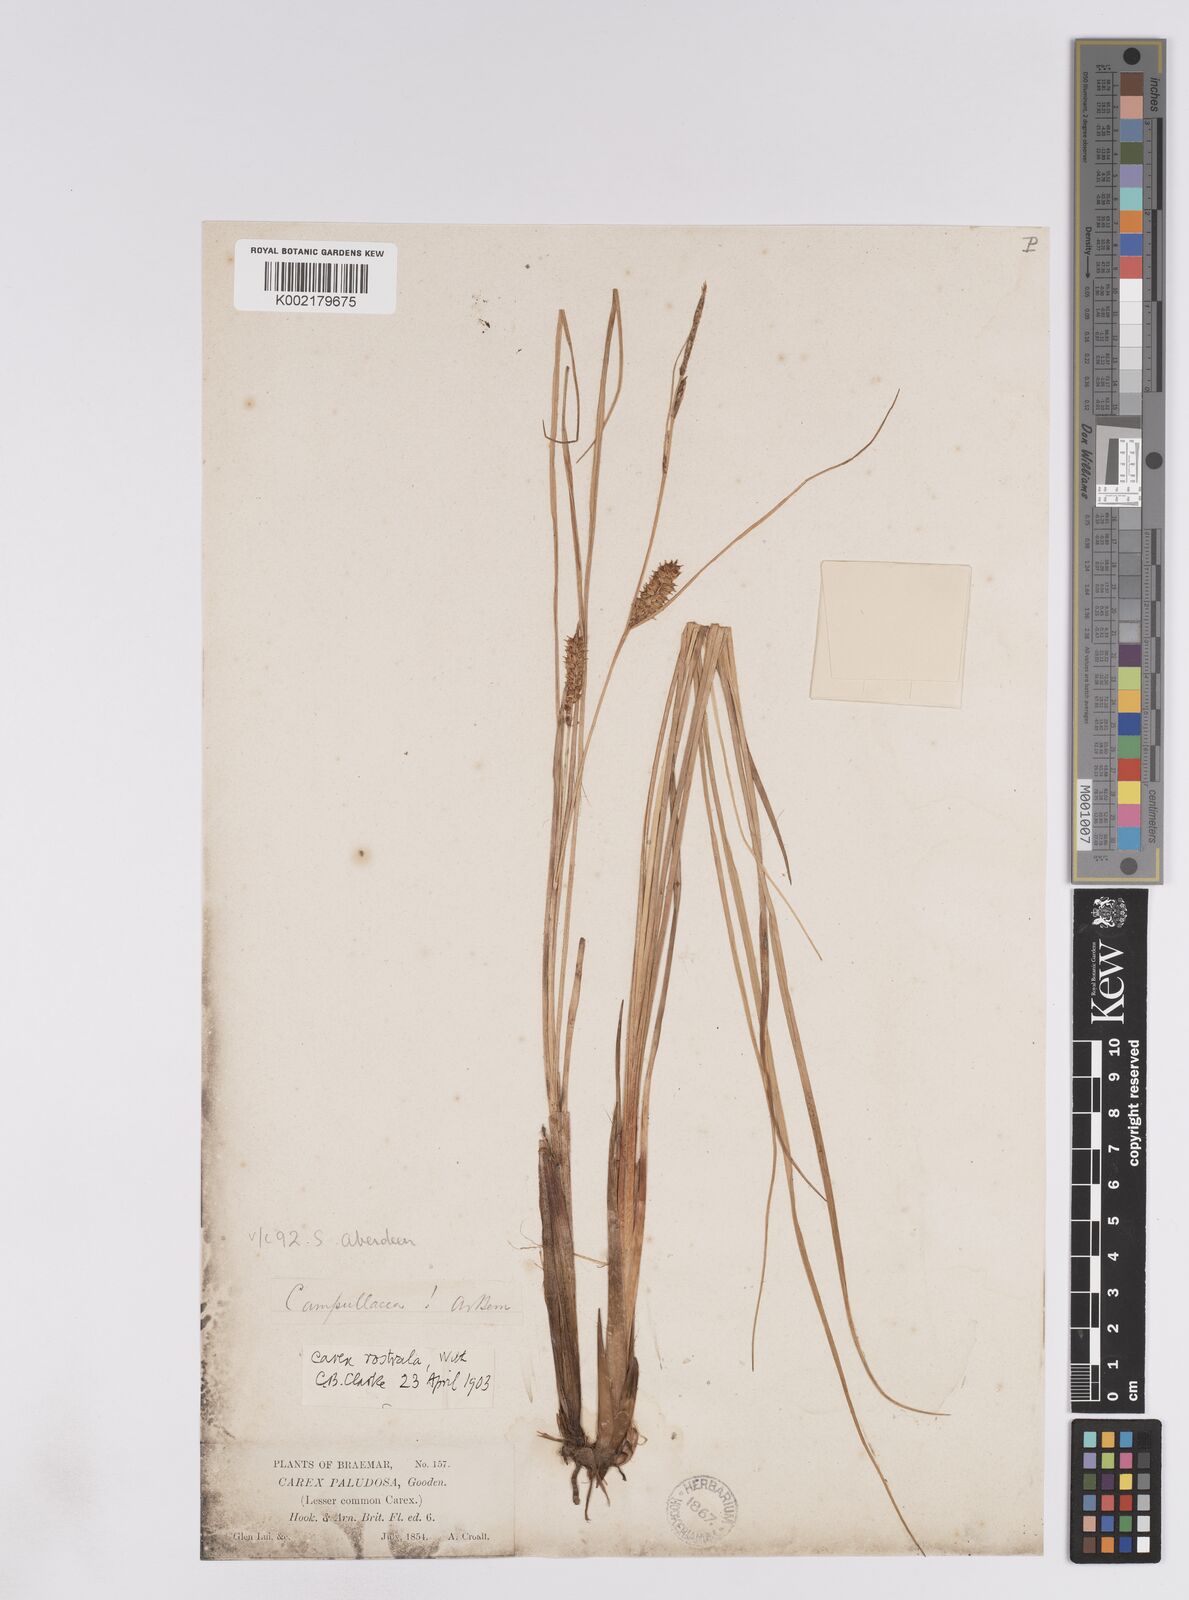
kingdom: Plantae
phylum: Tracheophyta
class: Liliopsida
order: Poales
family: Cyperaceae
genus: Carex
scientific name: Carex rostrata
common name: Bottle sedge
